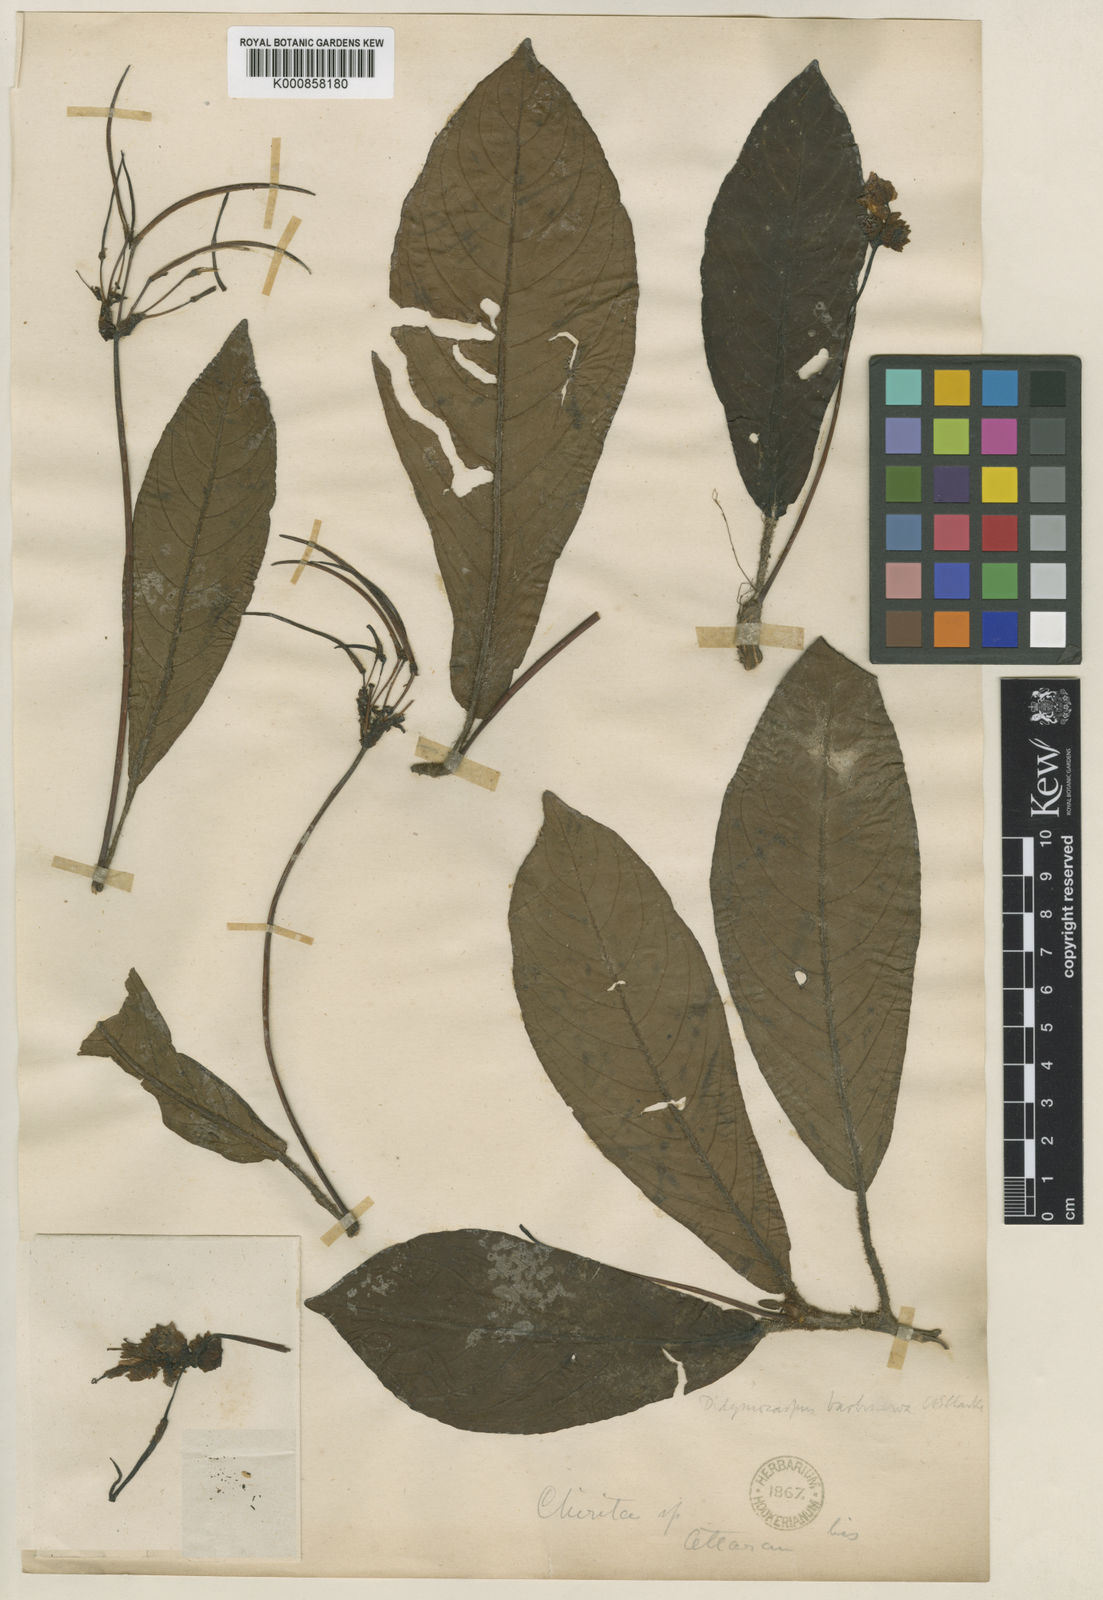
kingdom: Plantae
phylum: Tracheophyta
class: Magnoliopsida
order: Lamiales
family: Gesneriaceae
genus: Henckelia
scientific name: Henckelia
